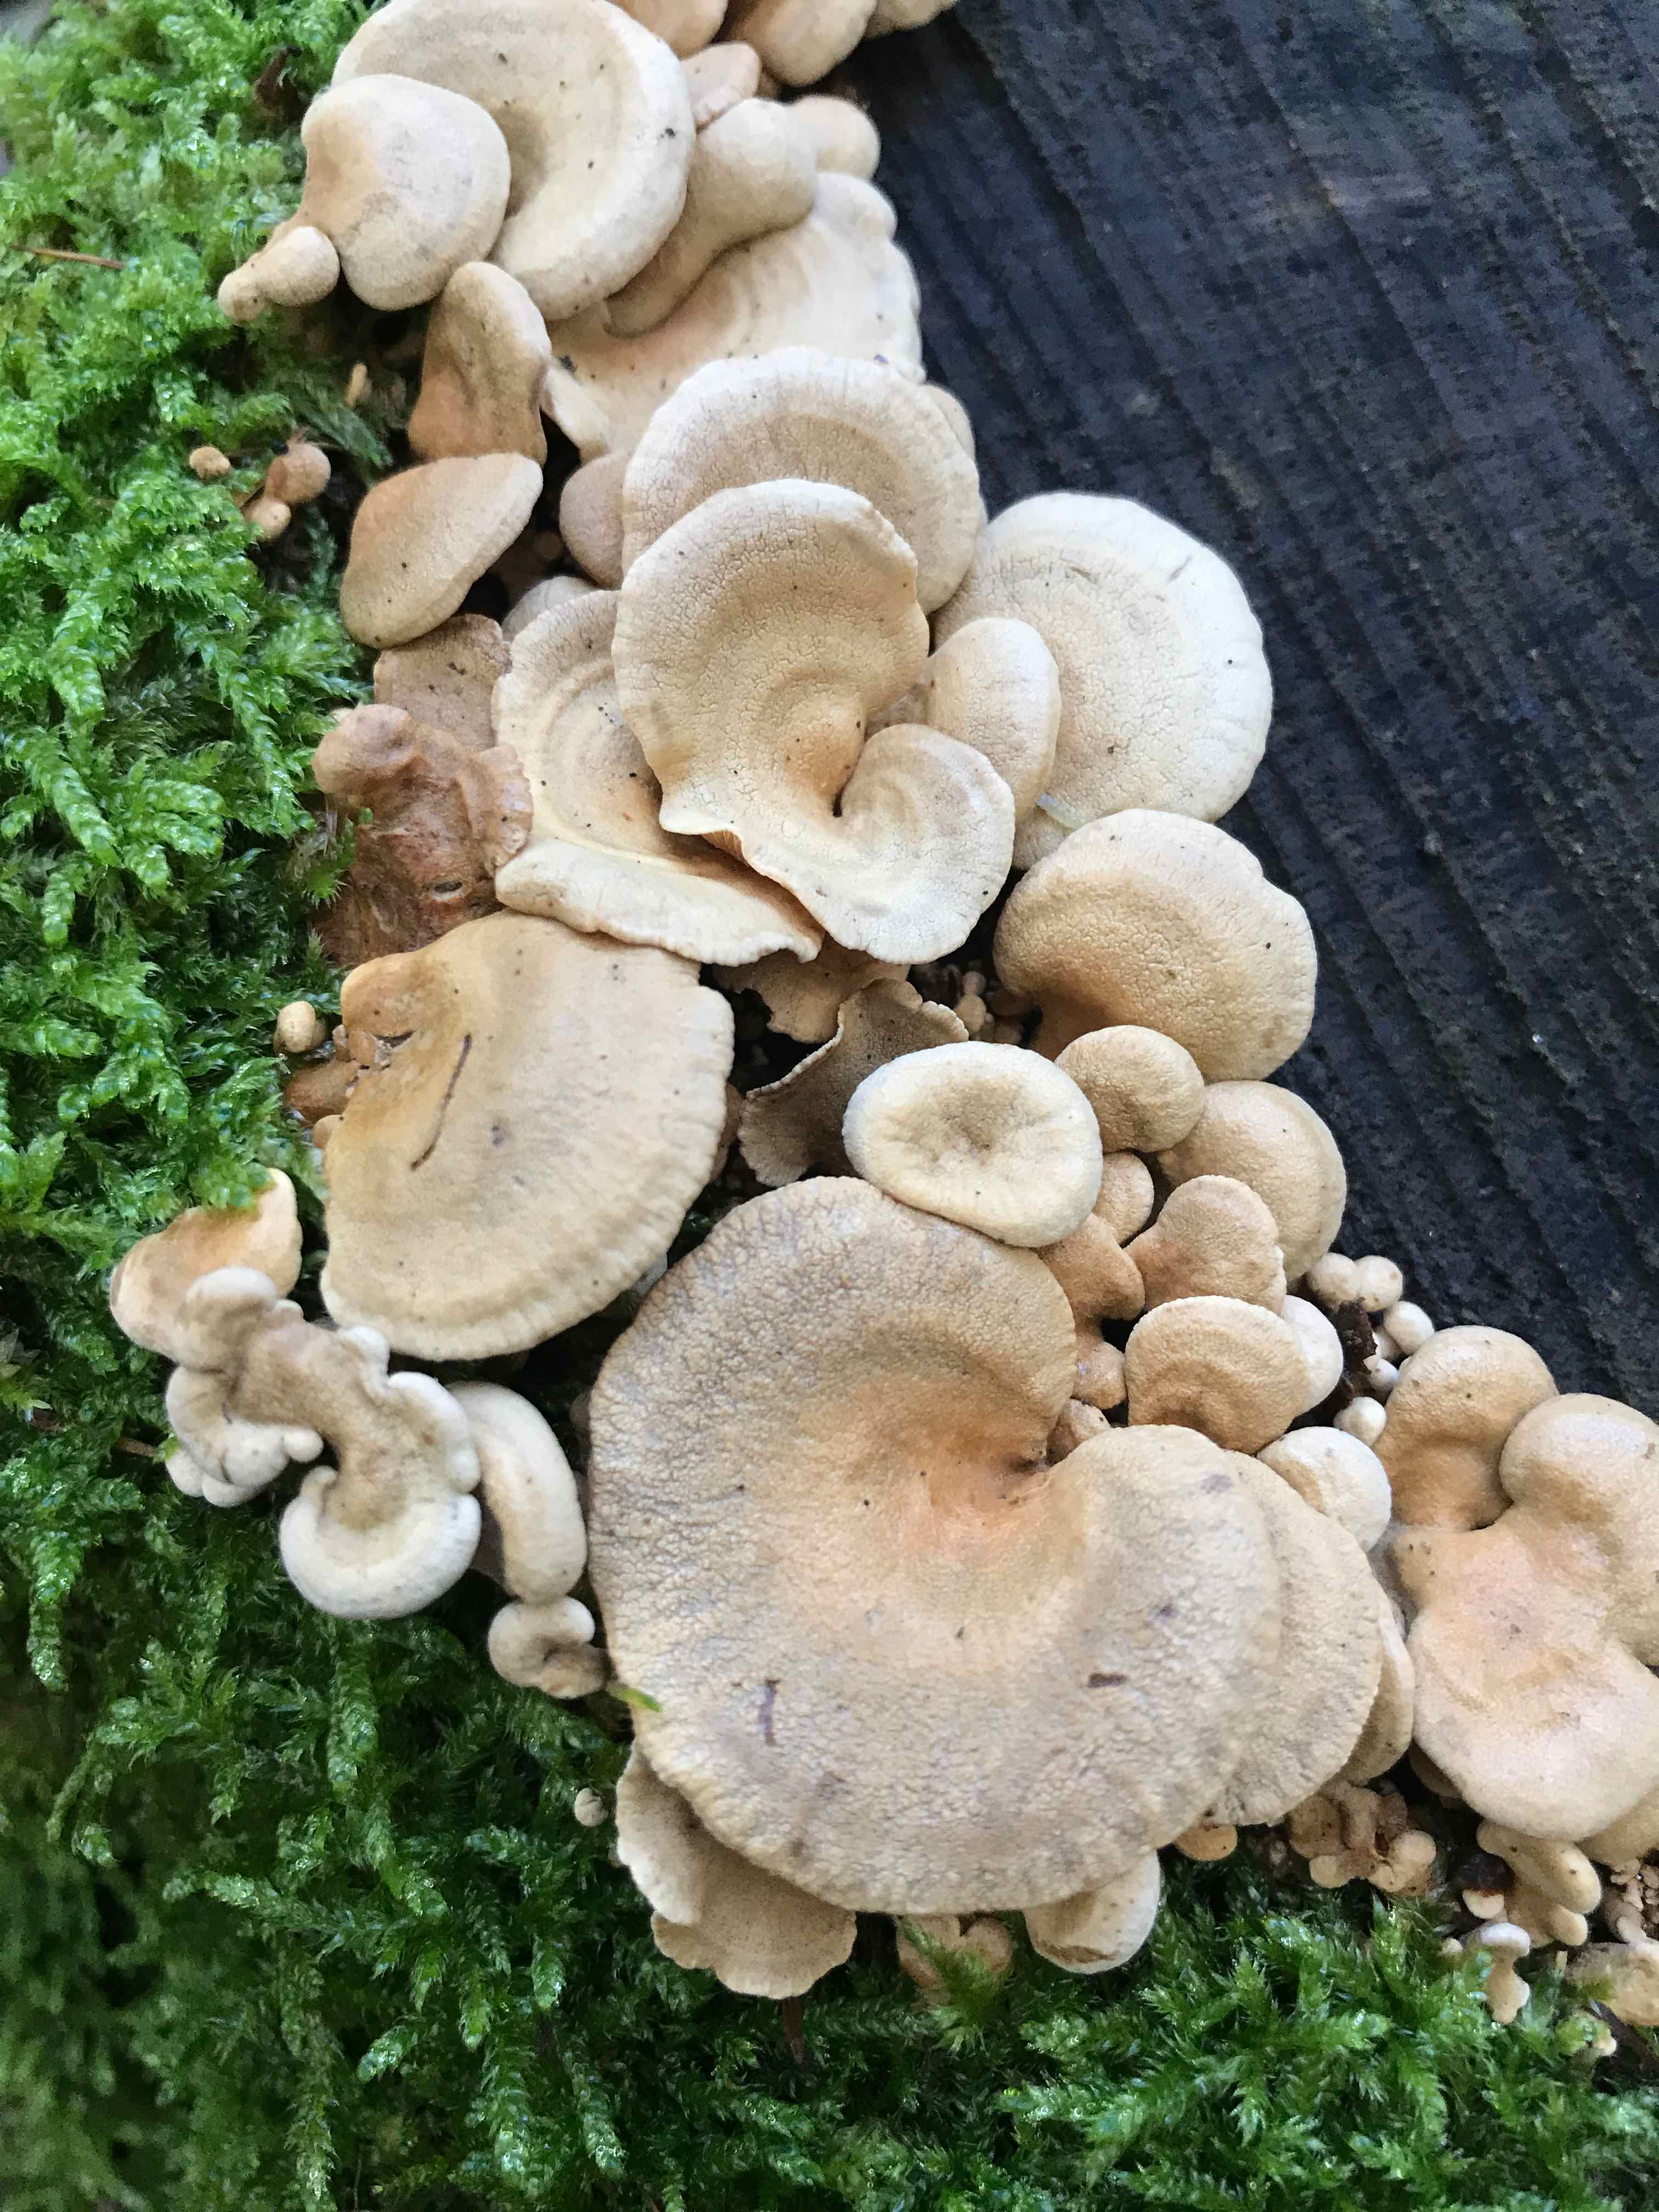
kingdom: Fungi
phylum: Basidiomycota
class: Agaricomycetes
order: Agaricales
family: Mycenaceae
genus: Panellus
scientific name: Panellus stipticus
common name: kliddet epaulethat
